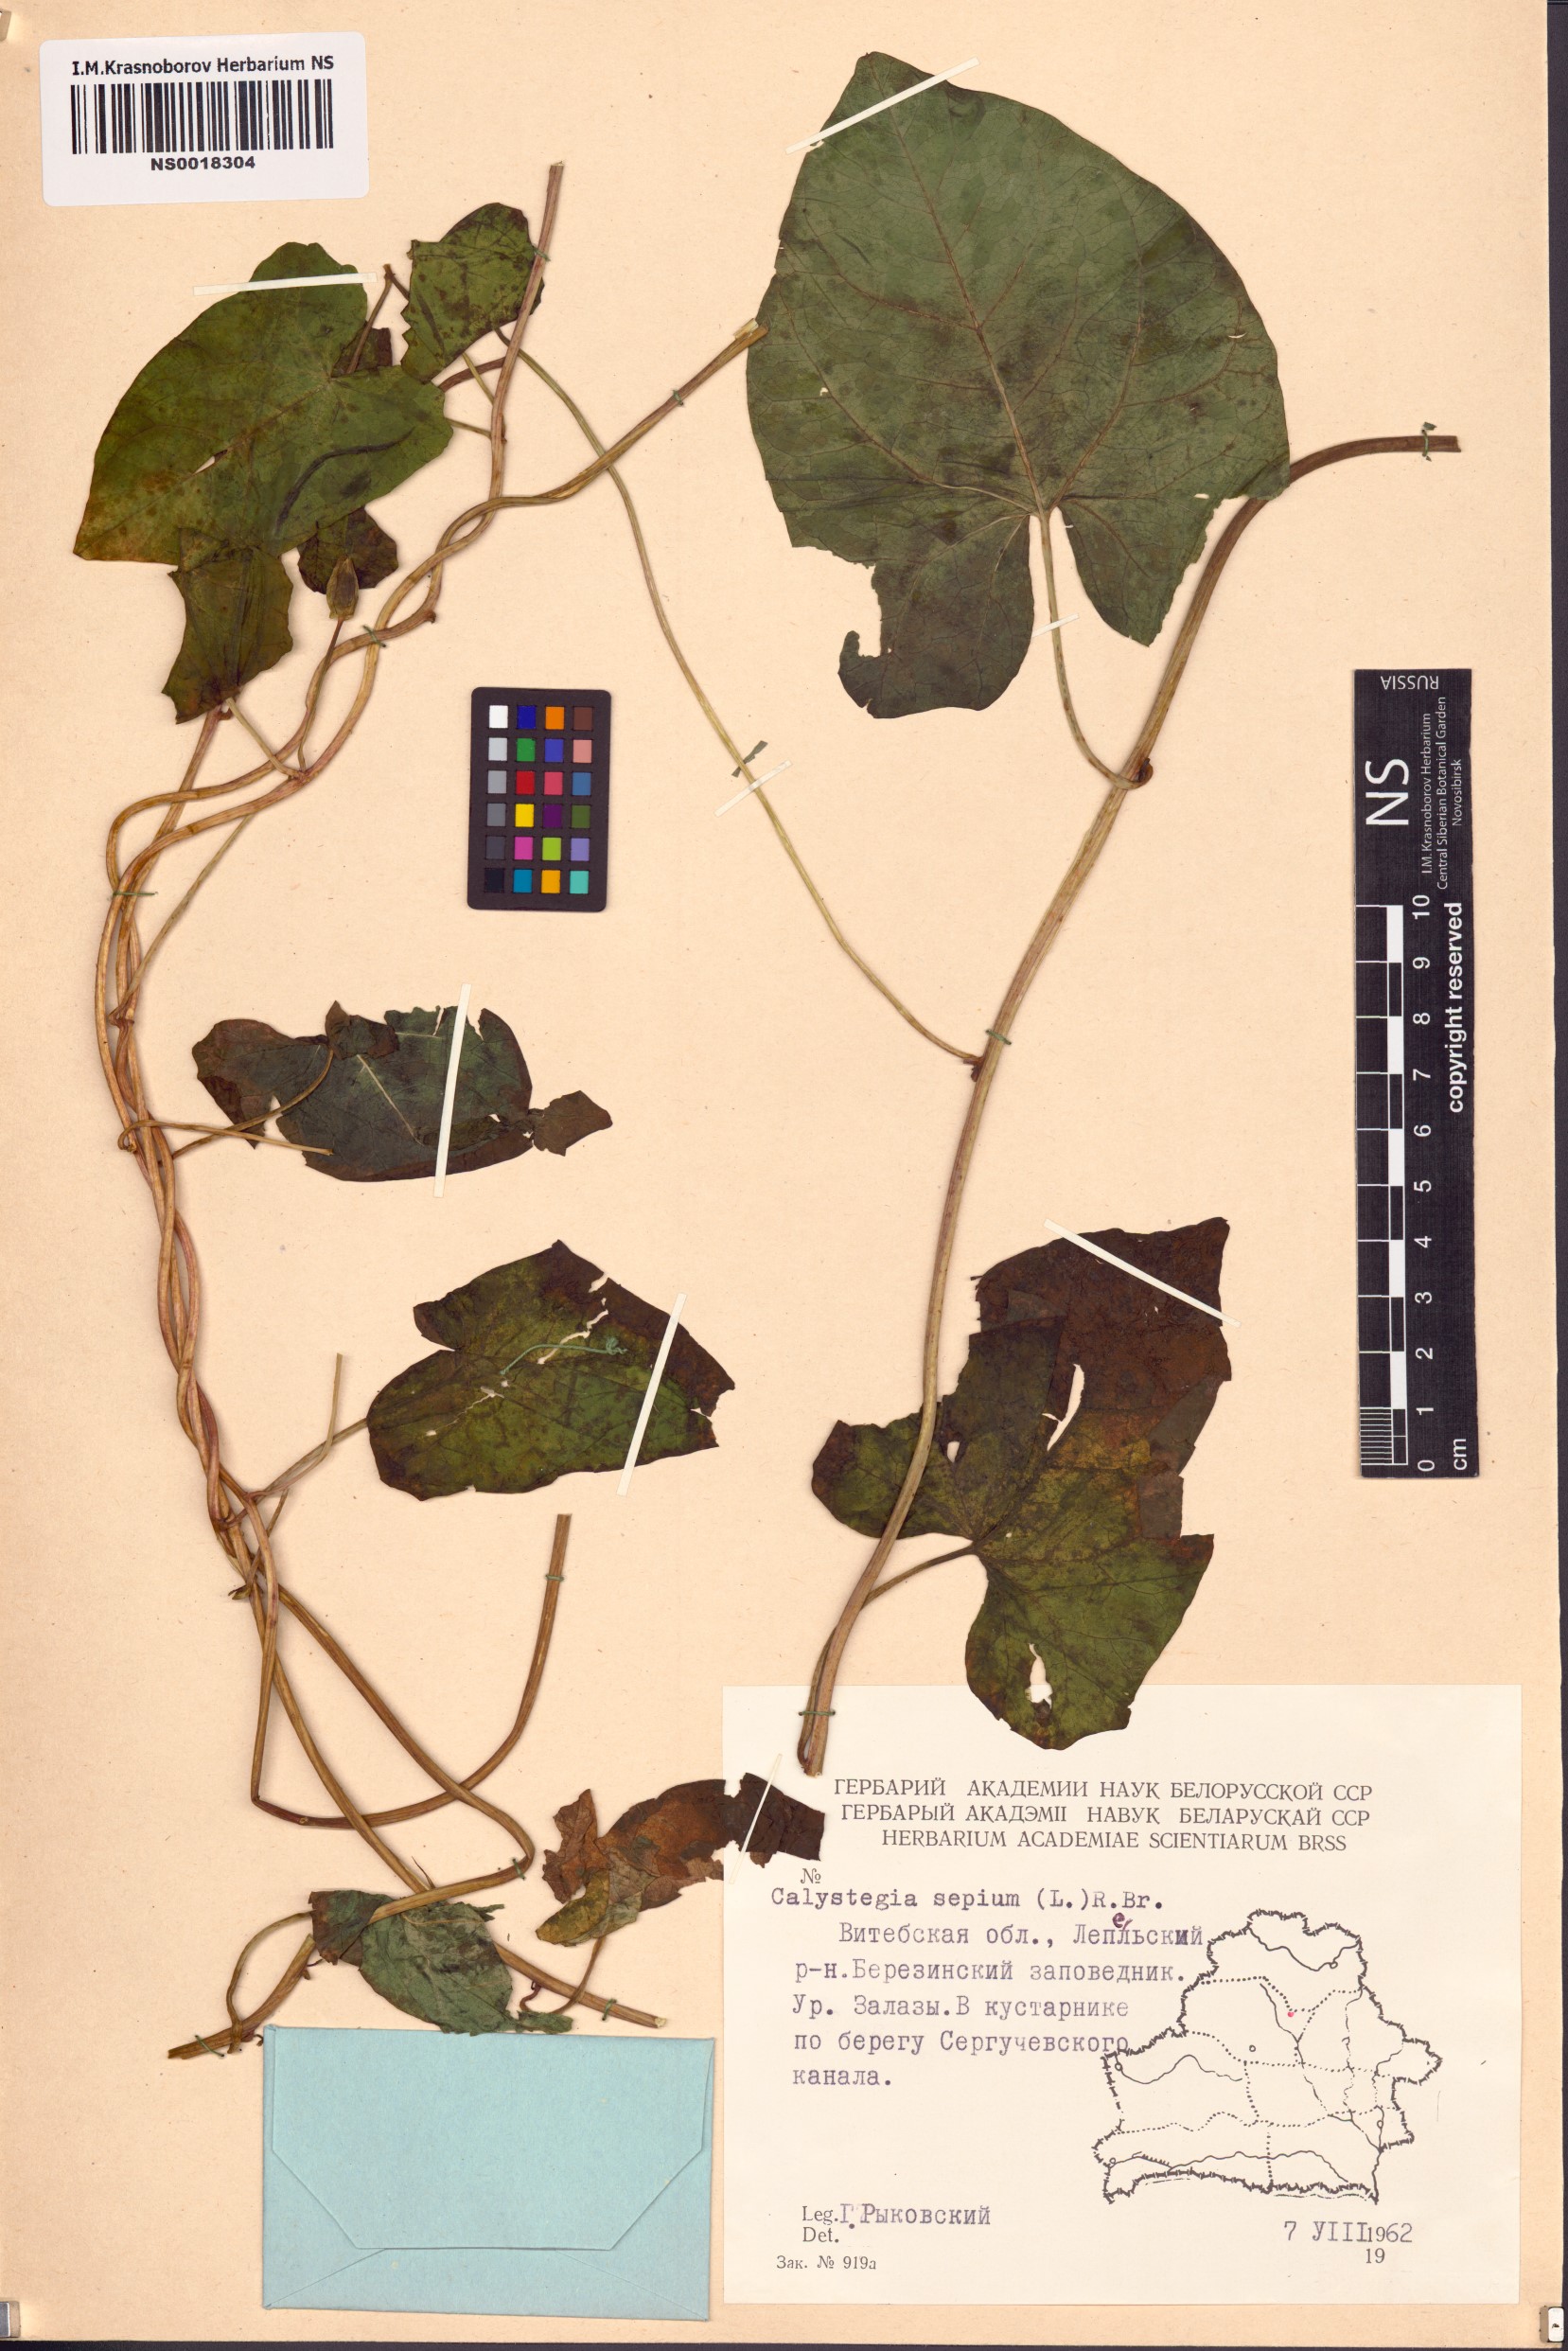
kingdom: Plantae
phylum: Tracheophyta
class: Magnoliopsida
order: Solanales
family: Convolvulaceae
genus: Calystegia
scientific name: Calystegia sepium
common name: Hedge bindweed
